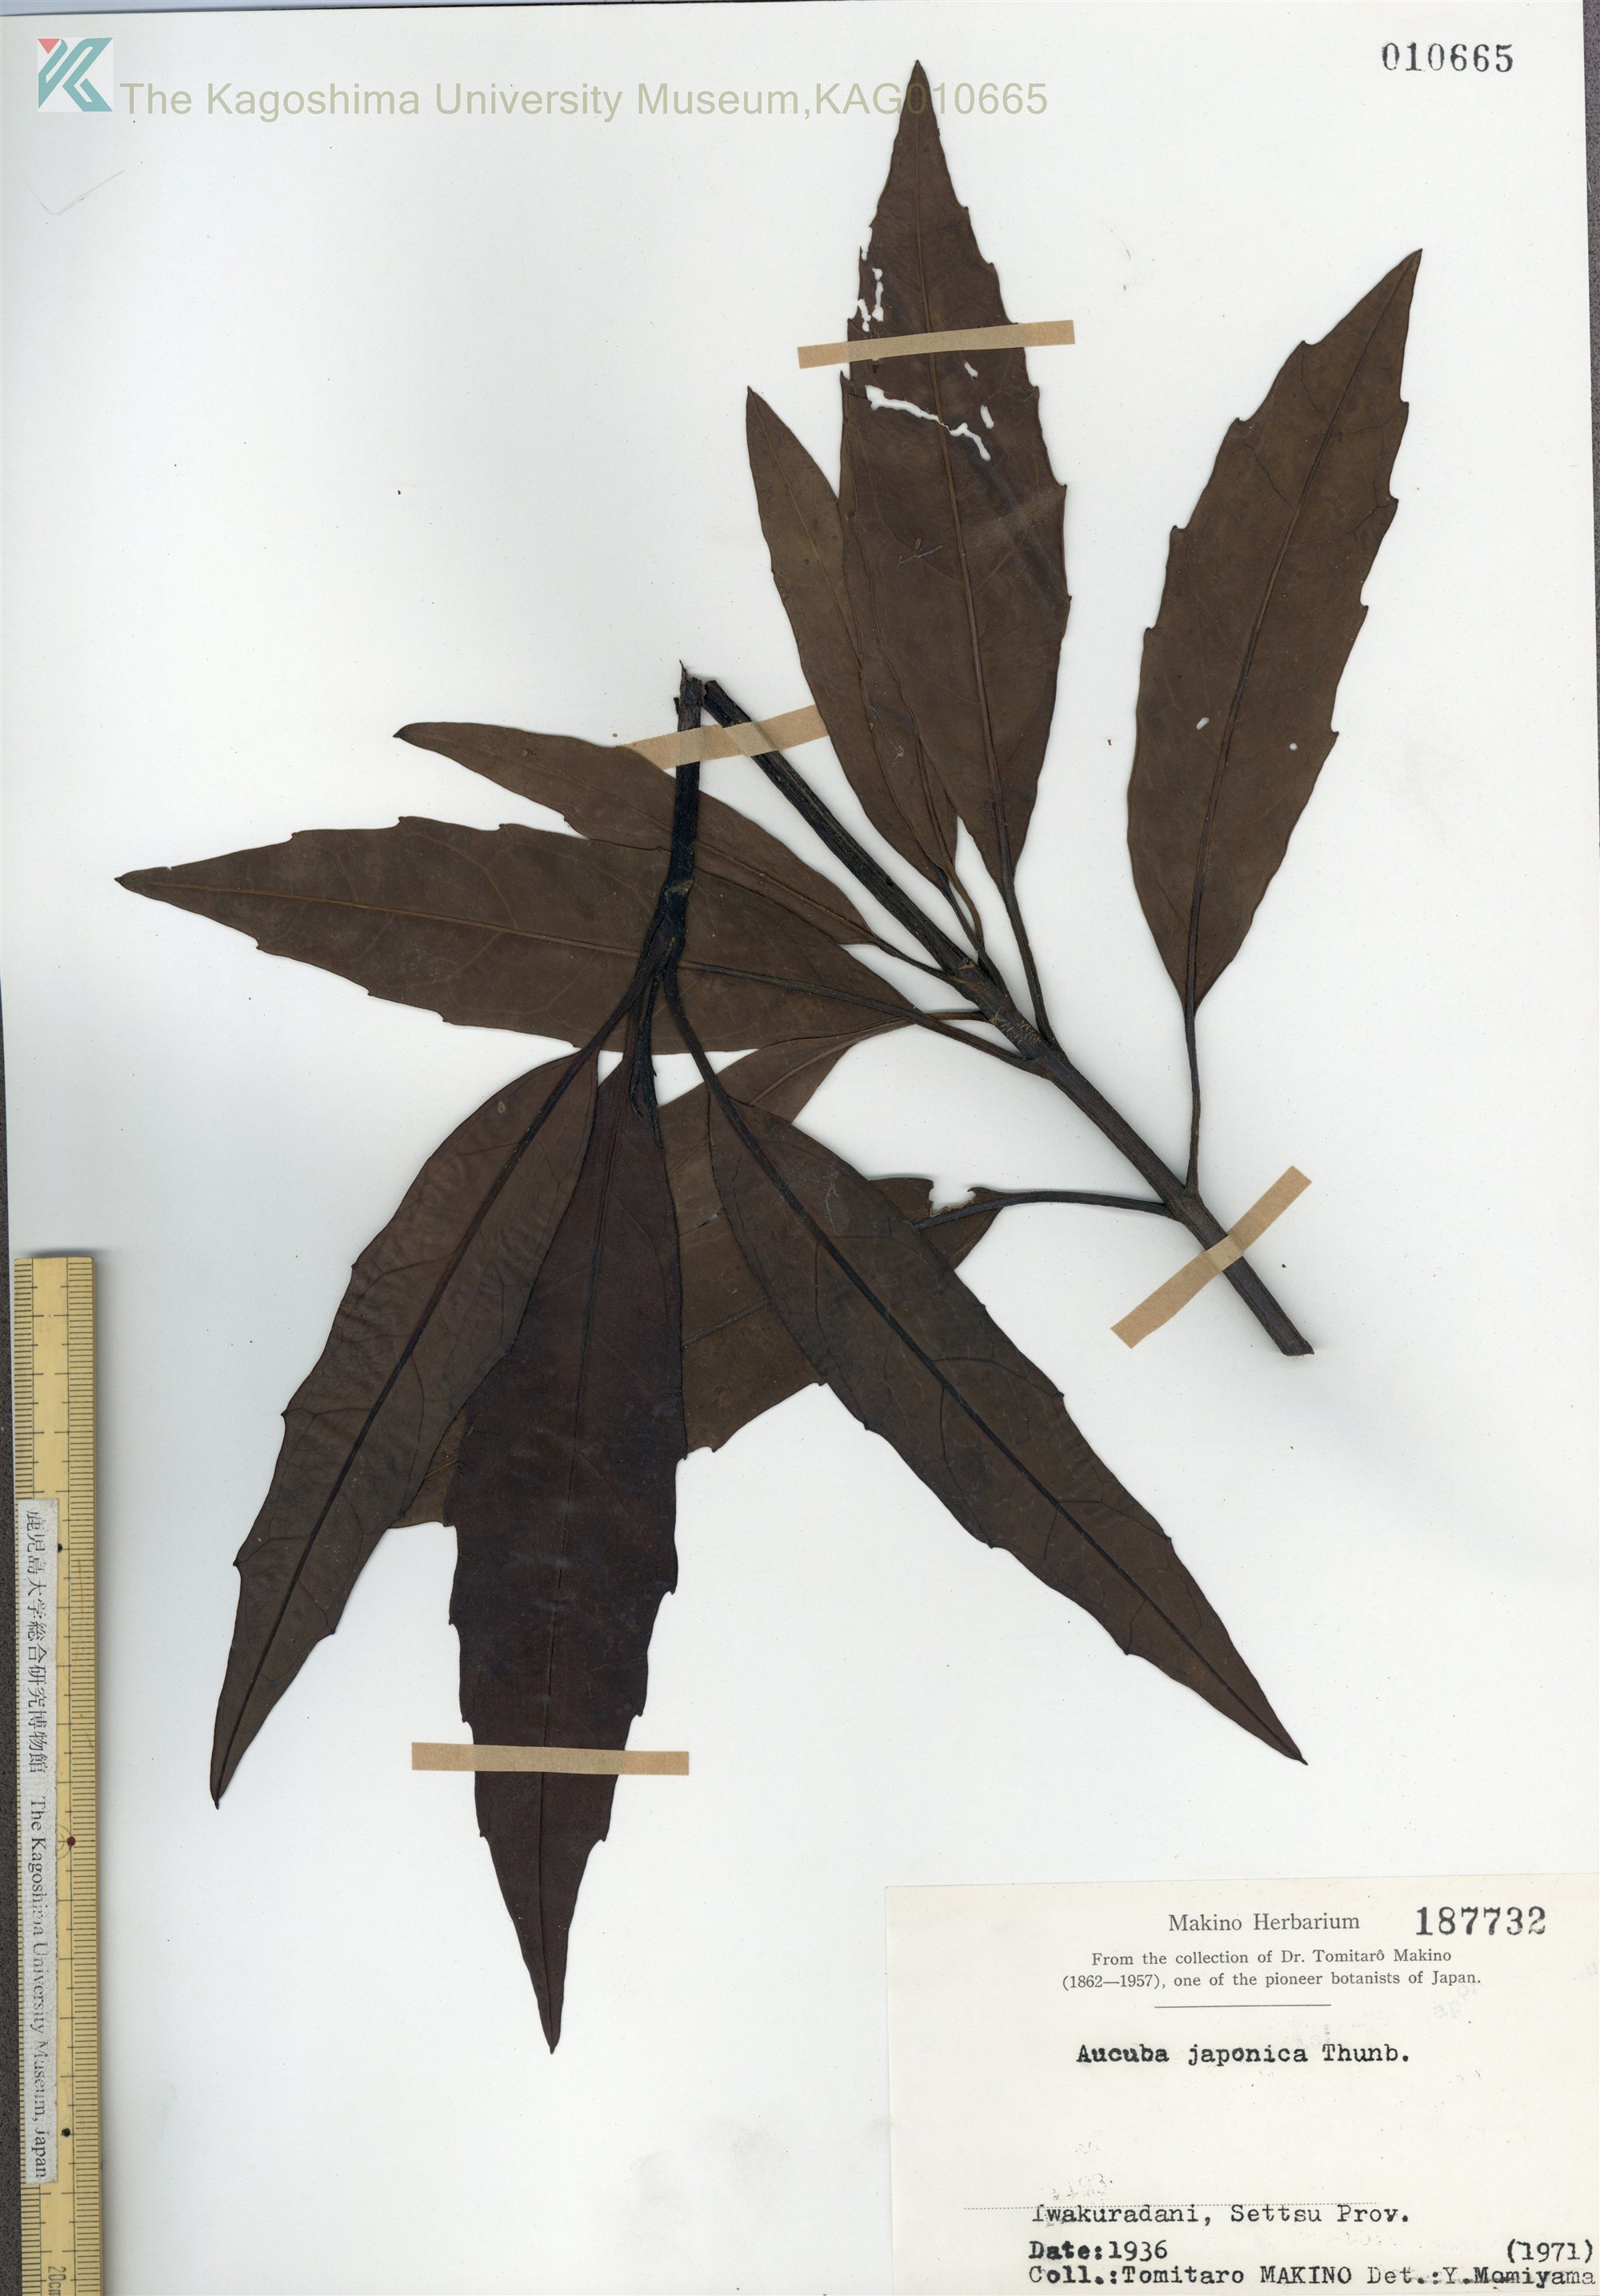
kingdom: Plantae
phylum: Tracheophyta
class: Magnoliopsida
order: Garryales
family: Garryaceae
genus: Aucuba
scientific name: Aucuba japonica
